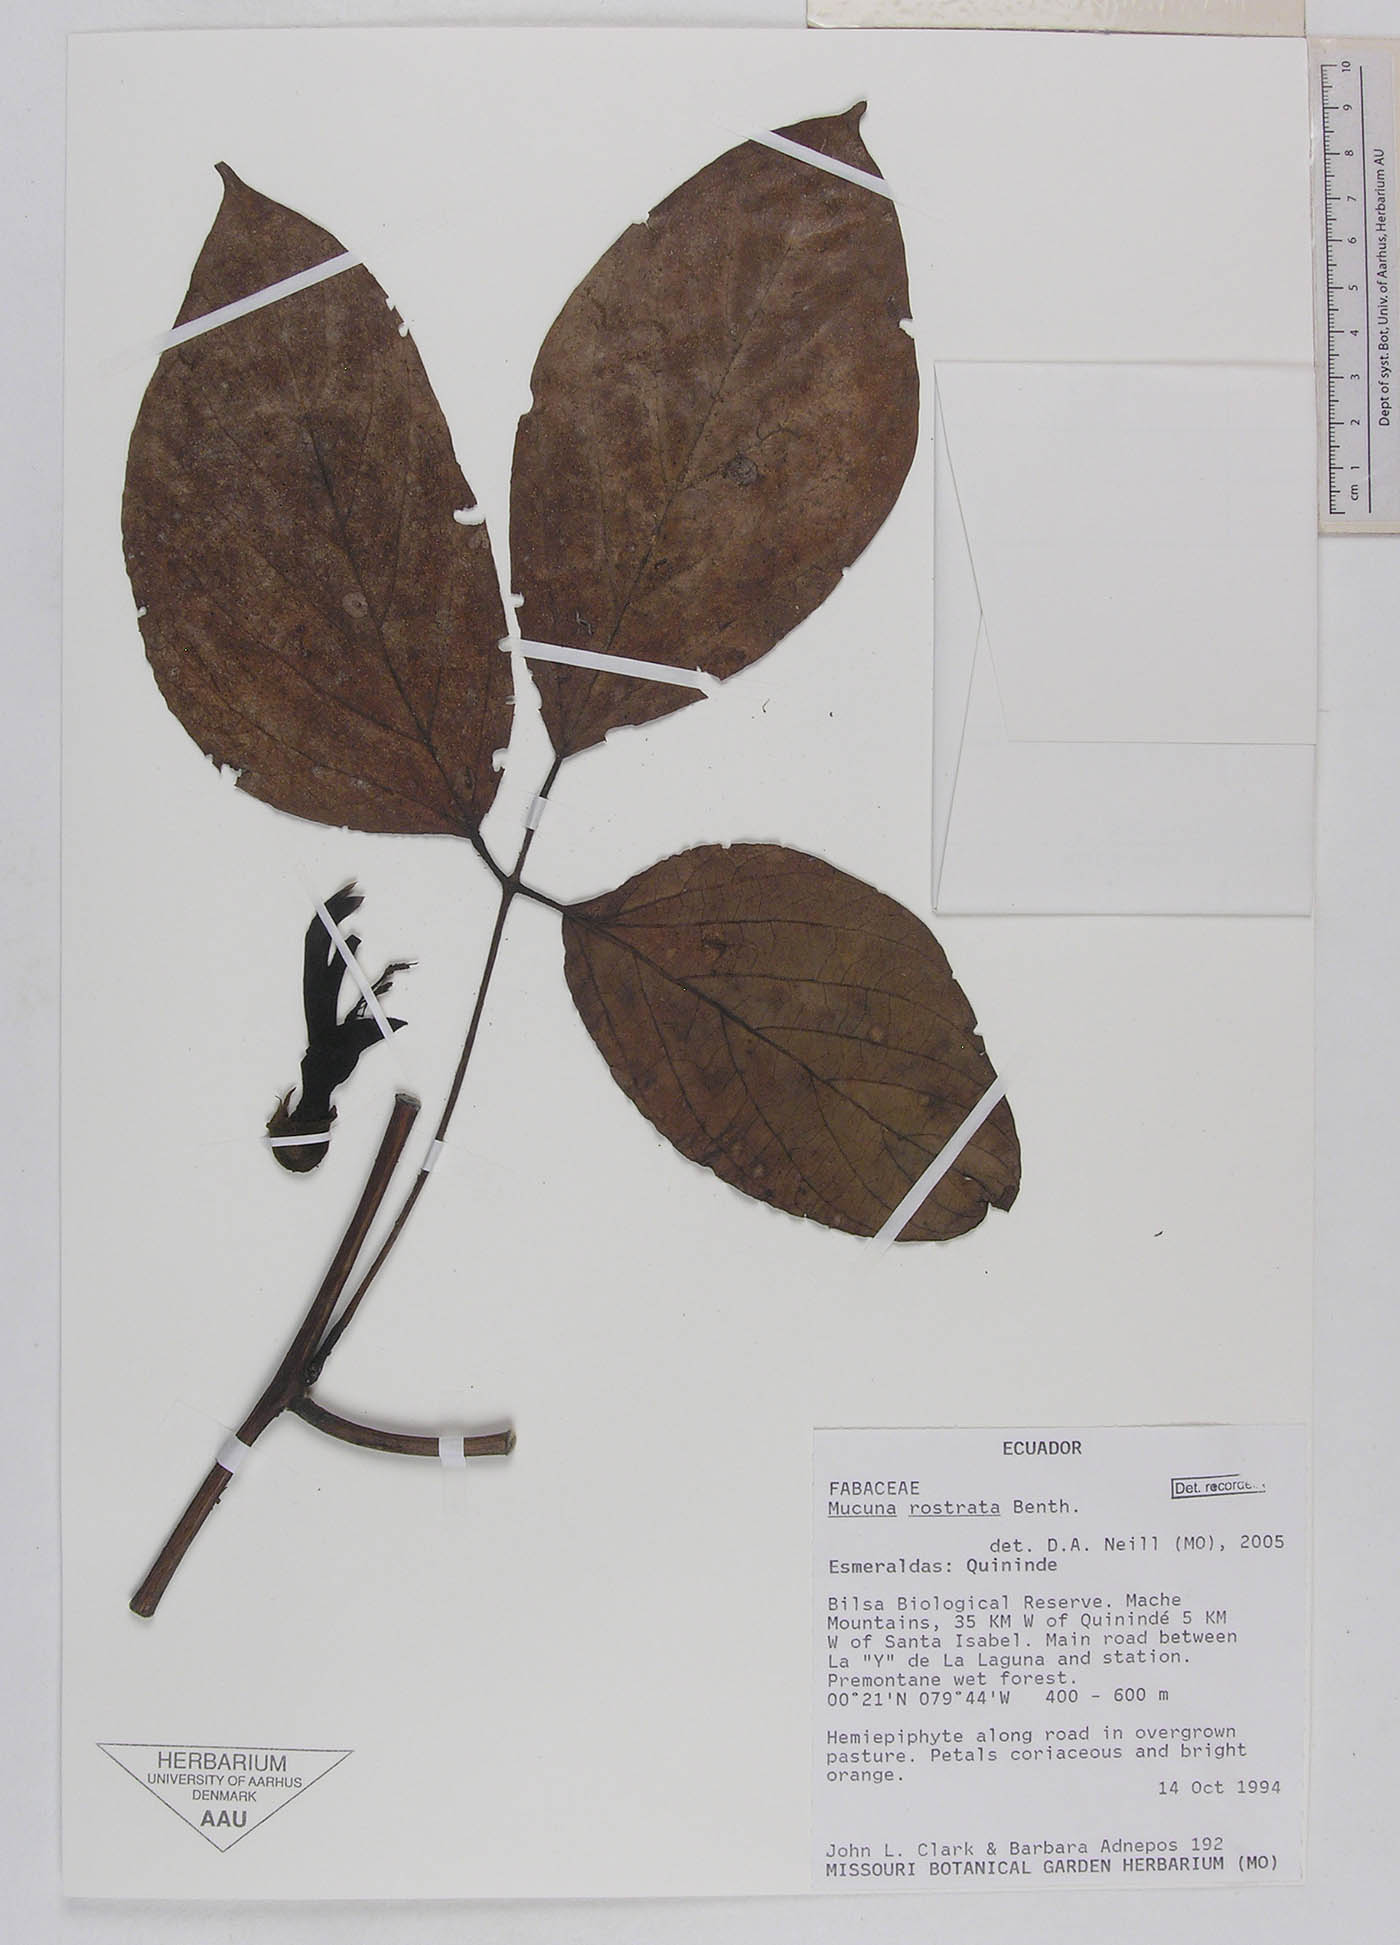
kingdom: Plantae
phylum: Tracheophyta
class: Magnoliopsida
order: Fabales
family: Fabaceae
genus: Mucuna
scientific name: Mucuna rostrata
